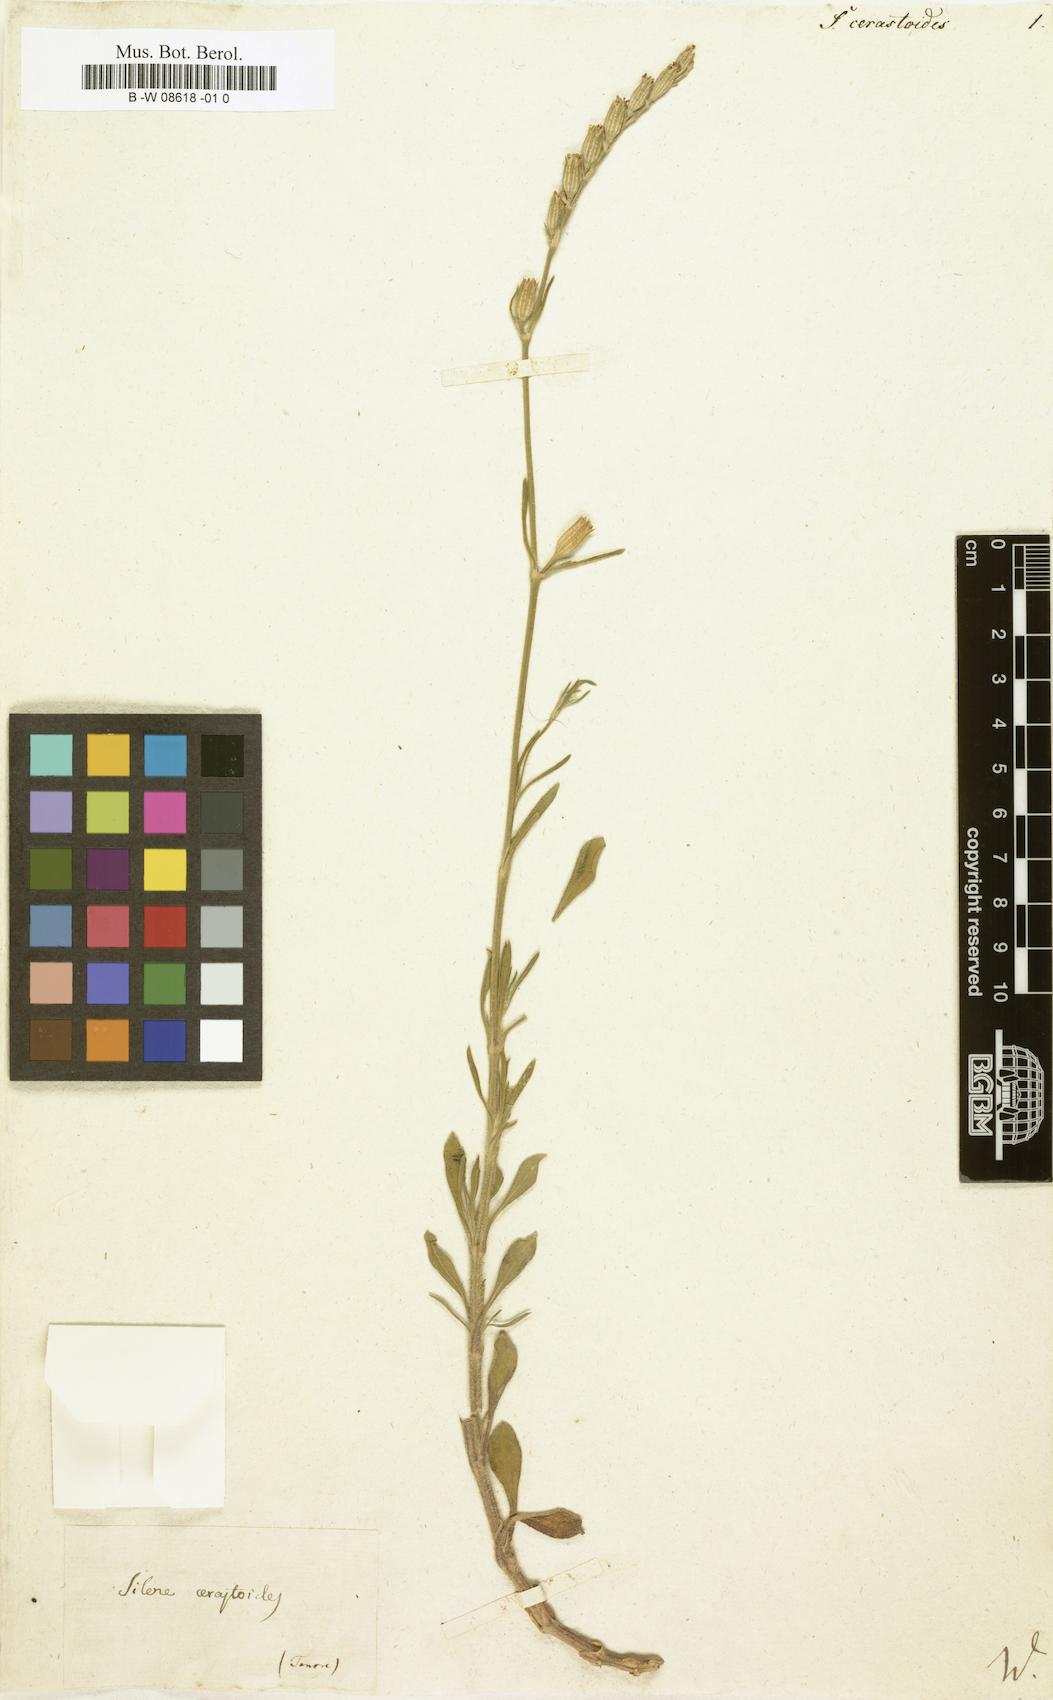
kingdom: Plantae
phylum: Tracheophyta
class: Magnoliopsida
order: Caryophyllales
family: Caryophyllaceae
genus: Silene
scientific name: Silene
